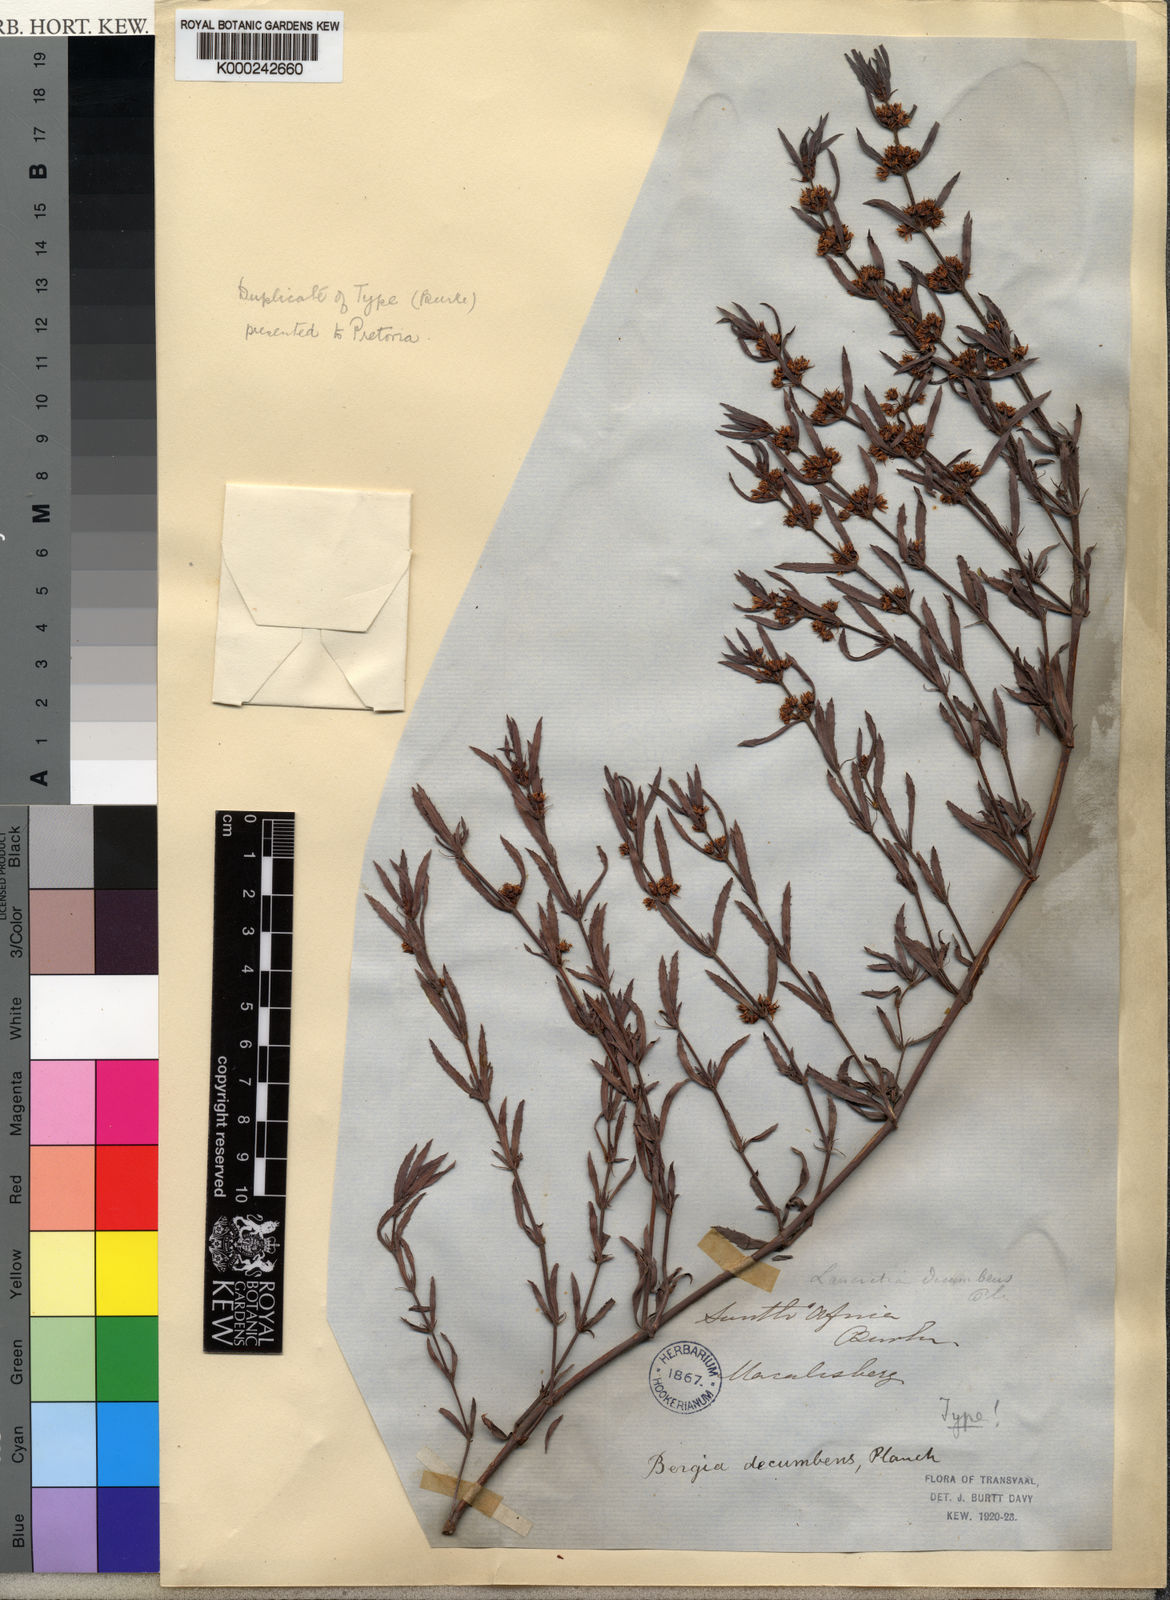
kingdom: Plantae
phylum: Tracheophyta
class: Magnoliopsida
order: Malpighiales
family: Elatinaceae
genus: Bergia
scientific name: Bergia decumbens
